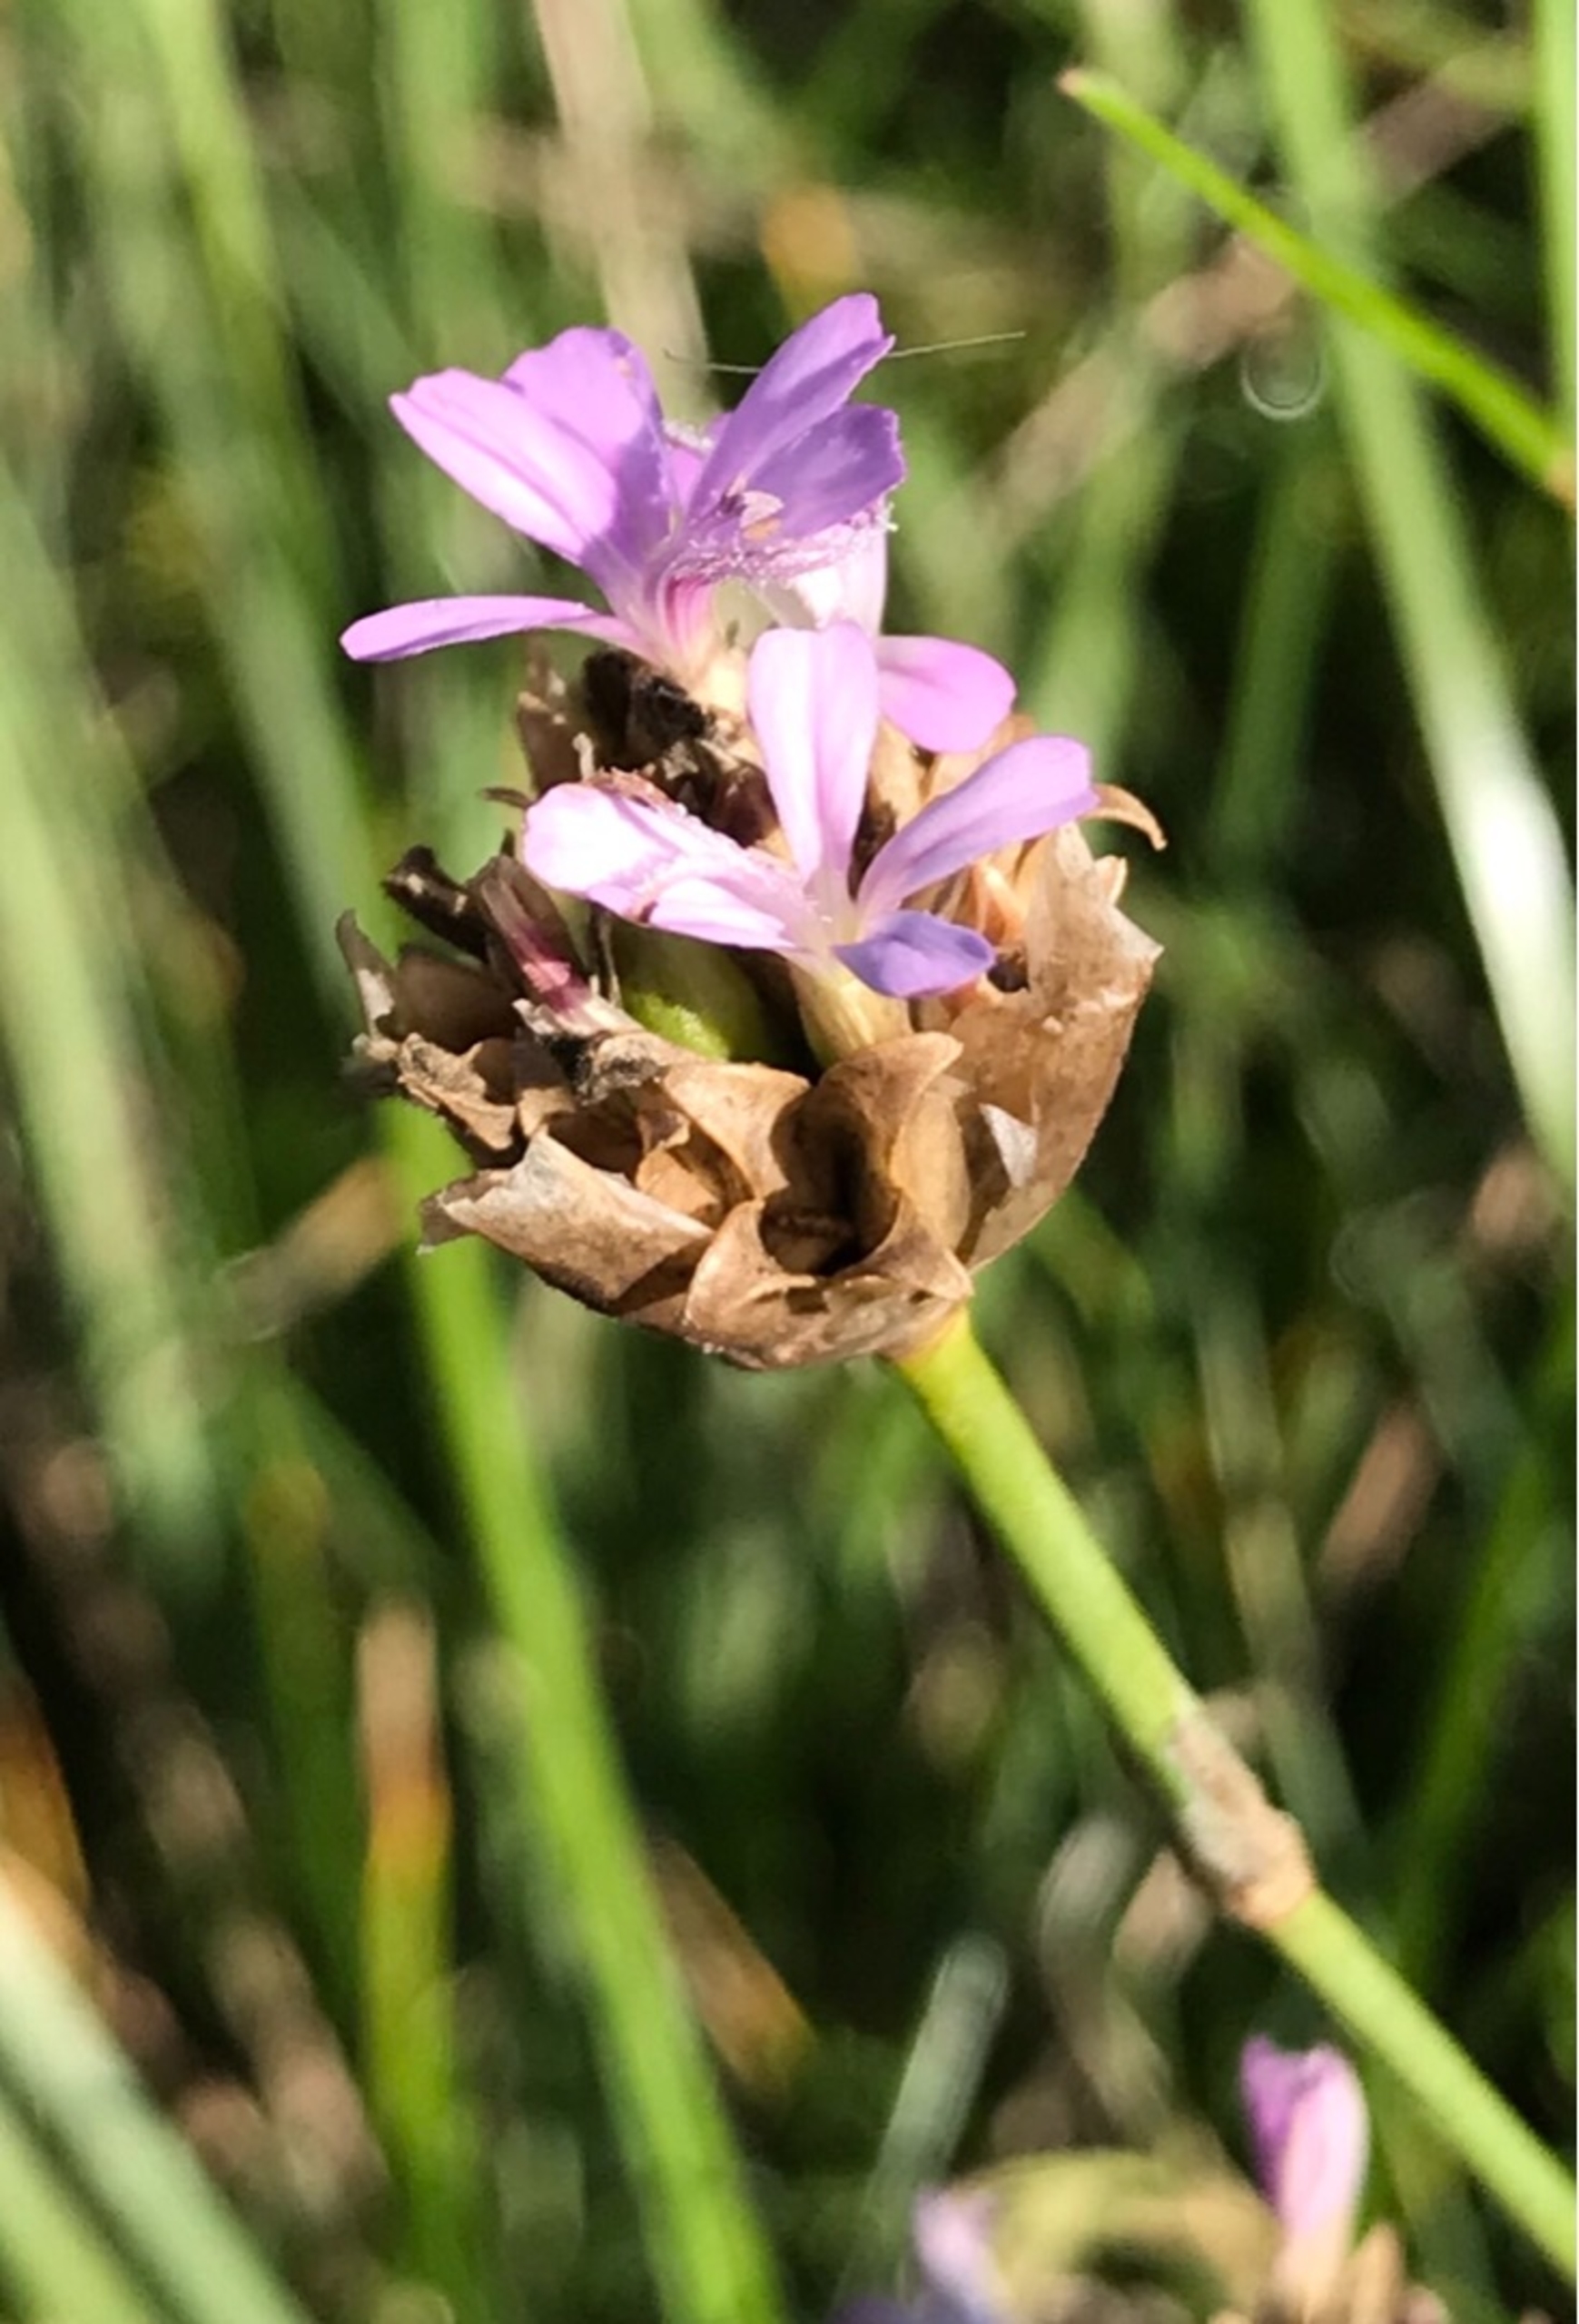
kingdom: Plantae
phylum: Tracheophyta
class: Magnoliopsida
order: Caryophyllales
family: Caryophyllaceae
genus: Petrorhagia
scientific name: Petrorhagia prolifera
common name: Knopnellike
